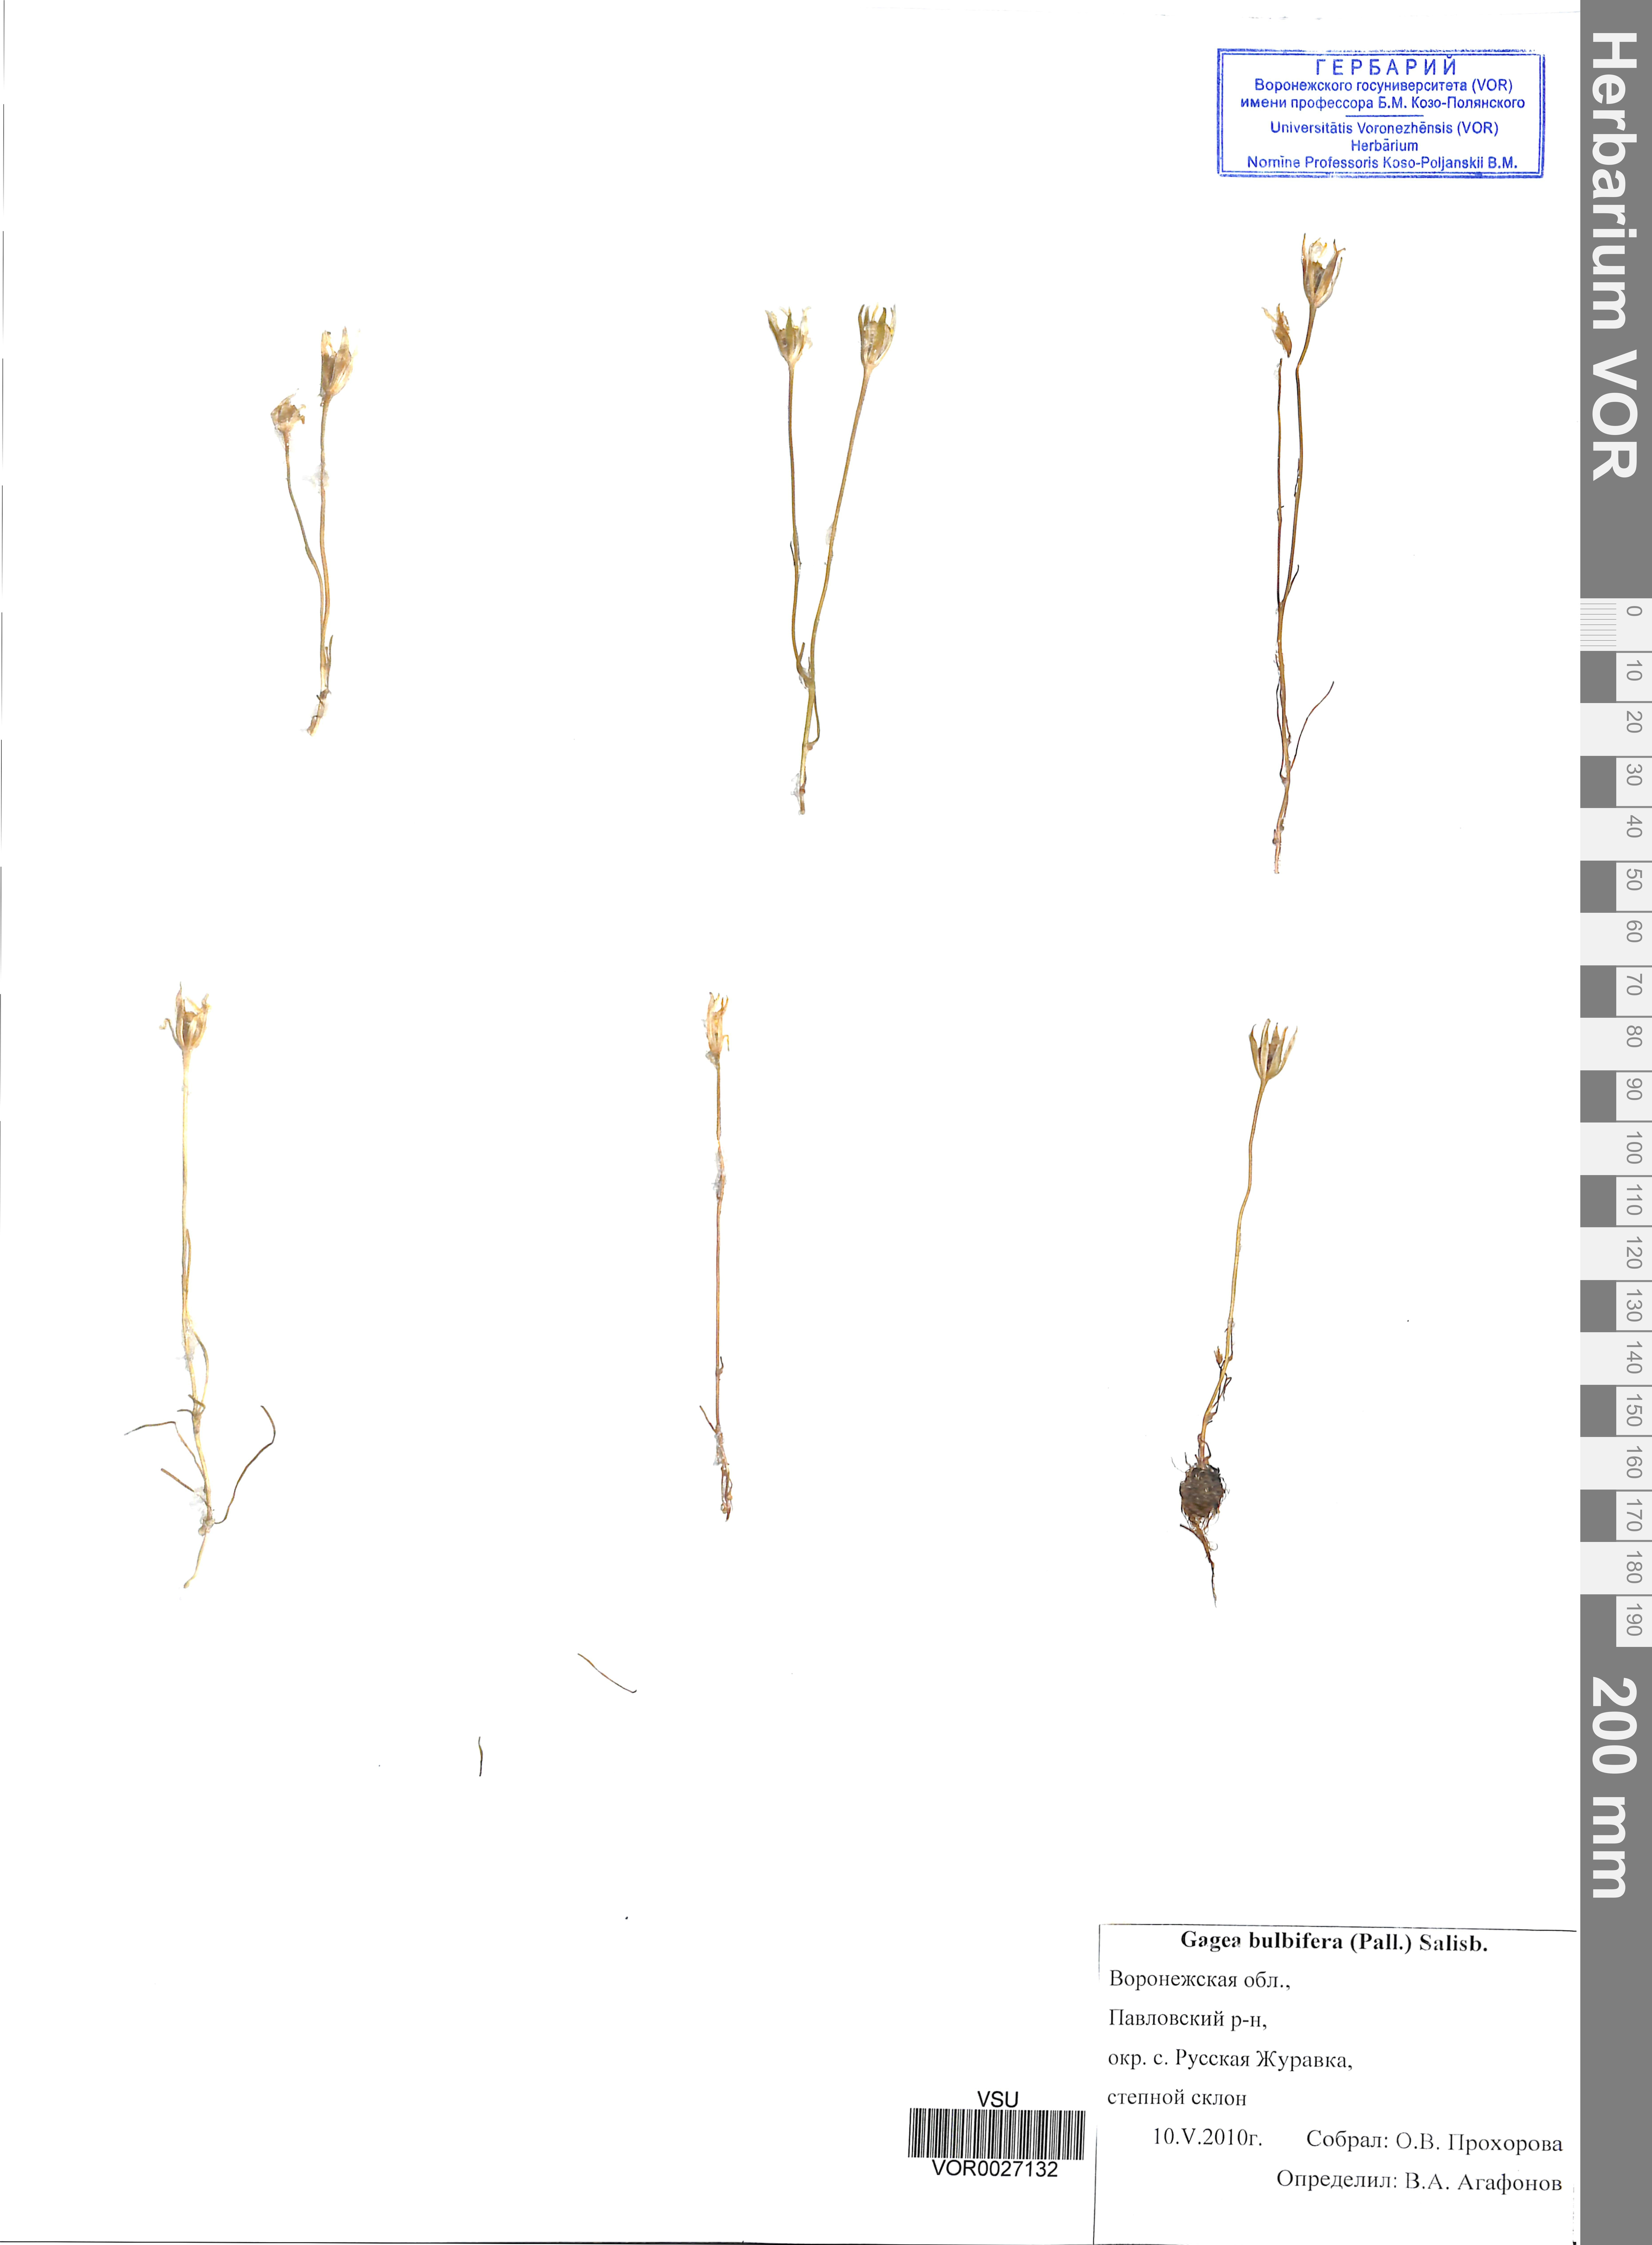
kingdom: Plantae
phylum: Tracheophyta
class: Liliopsida
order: Liliales
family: Liliaceae
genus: Gagea
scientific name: Gagea bulbifera
